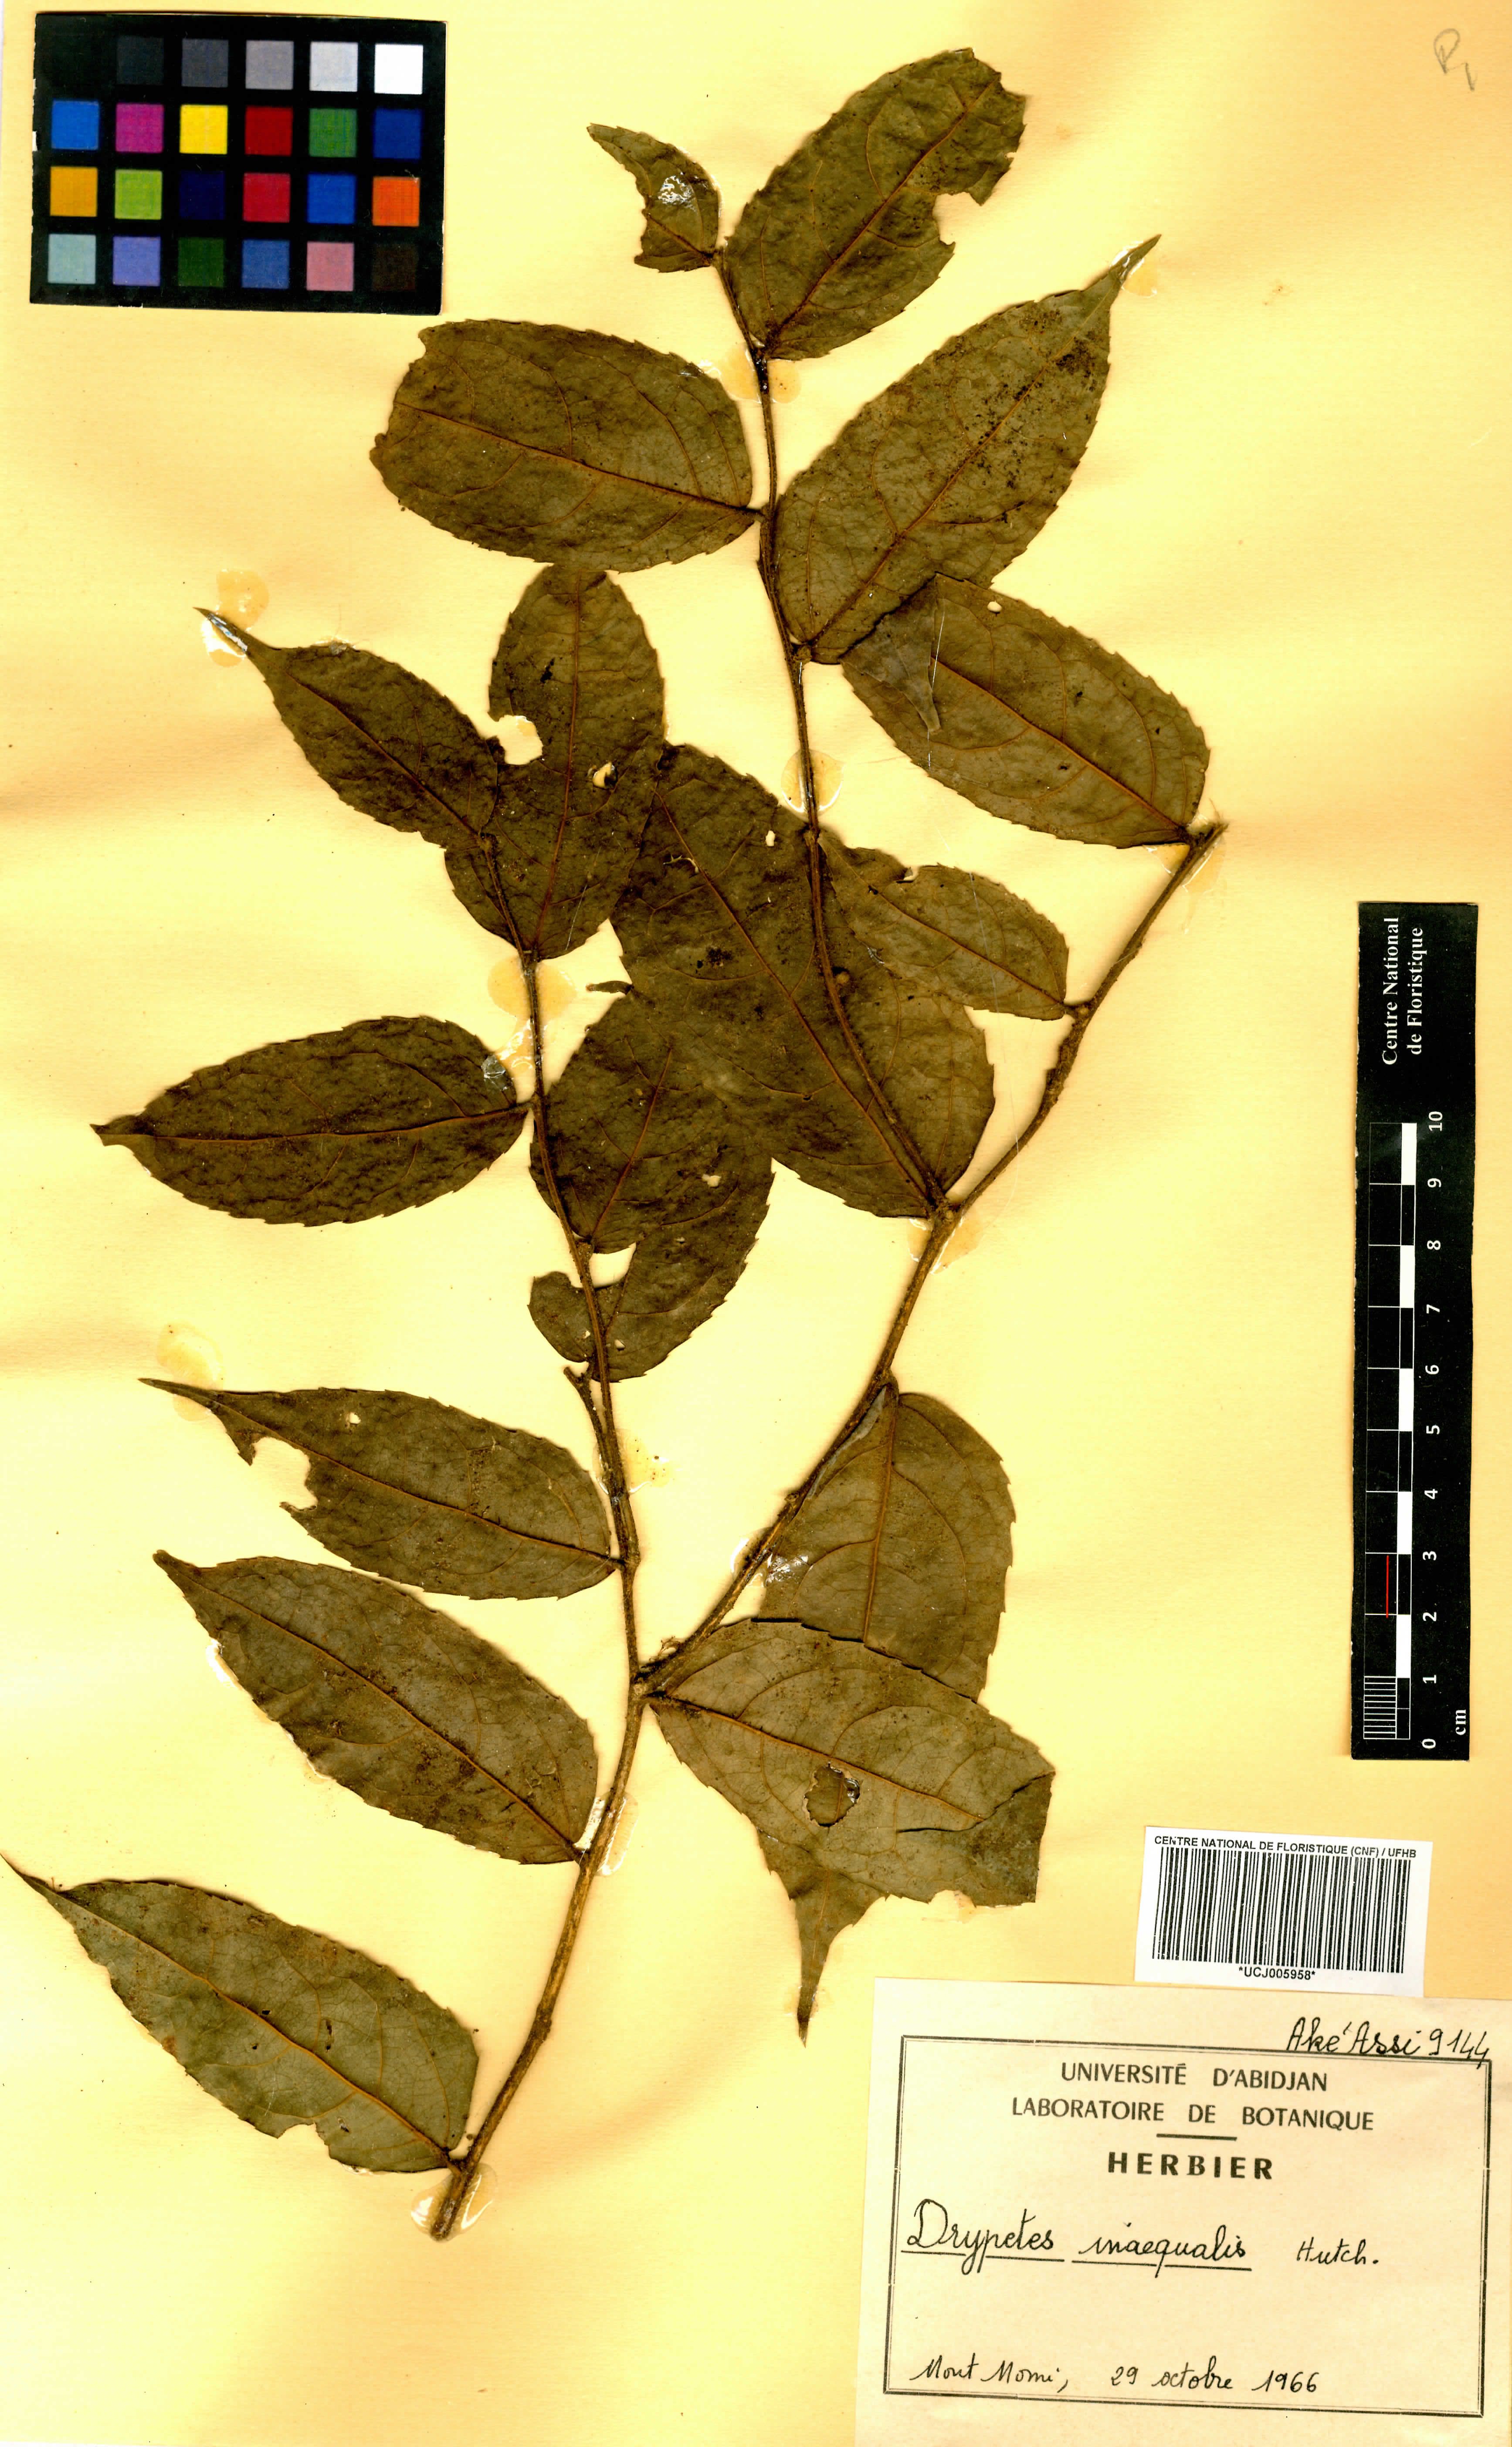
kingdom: Plantae
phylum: Tracheophyta
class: Magnoliopsida
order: Malpighiales
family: Putranjivaceae
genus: Drypetes
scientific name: Drypetes inaequalis
